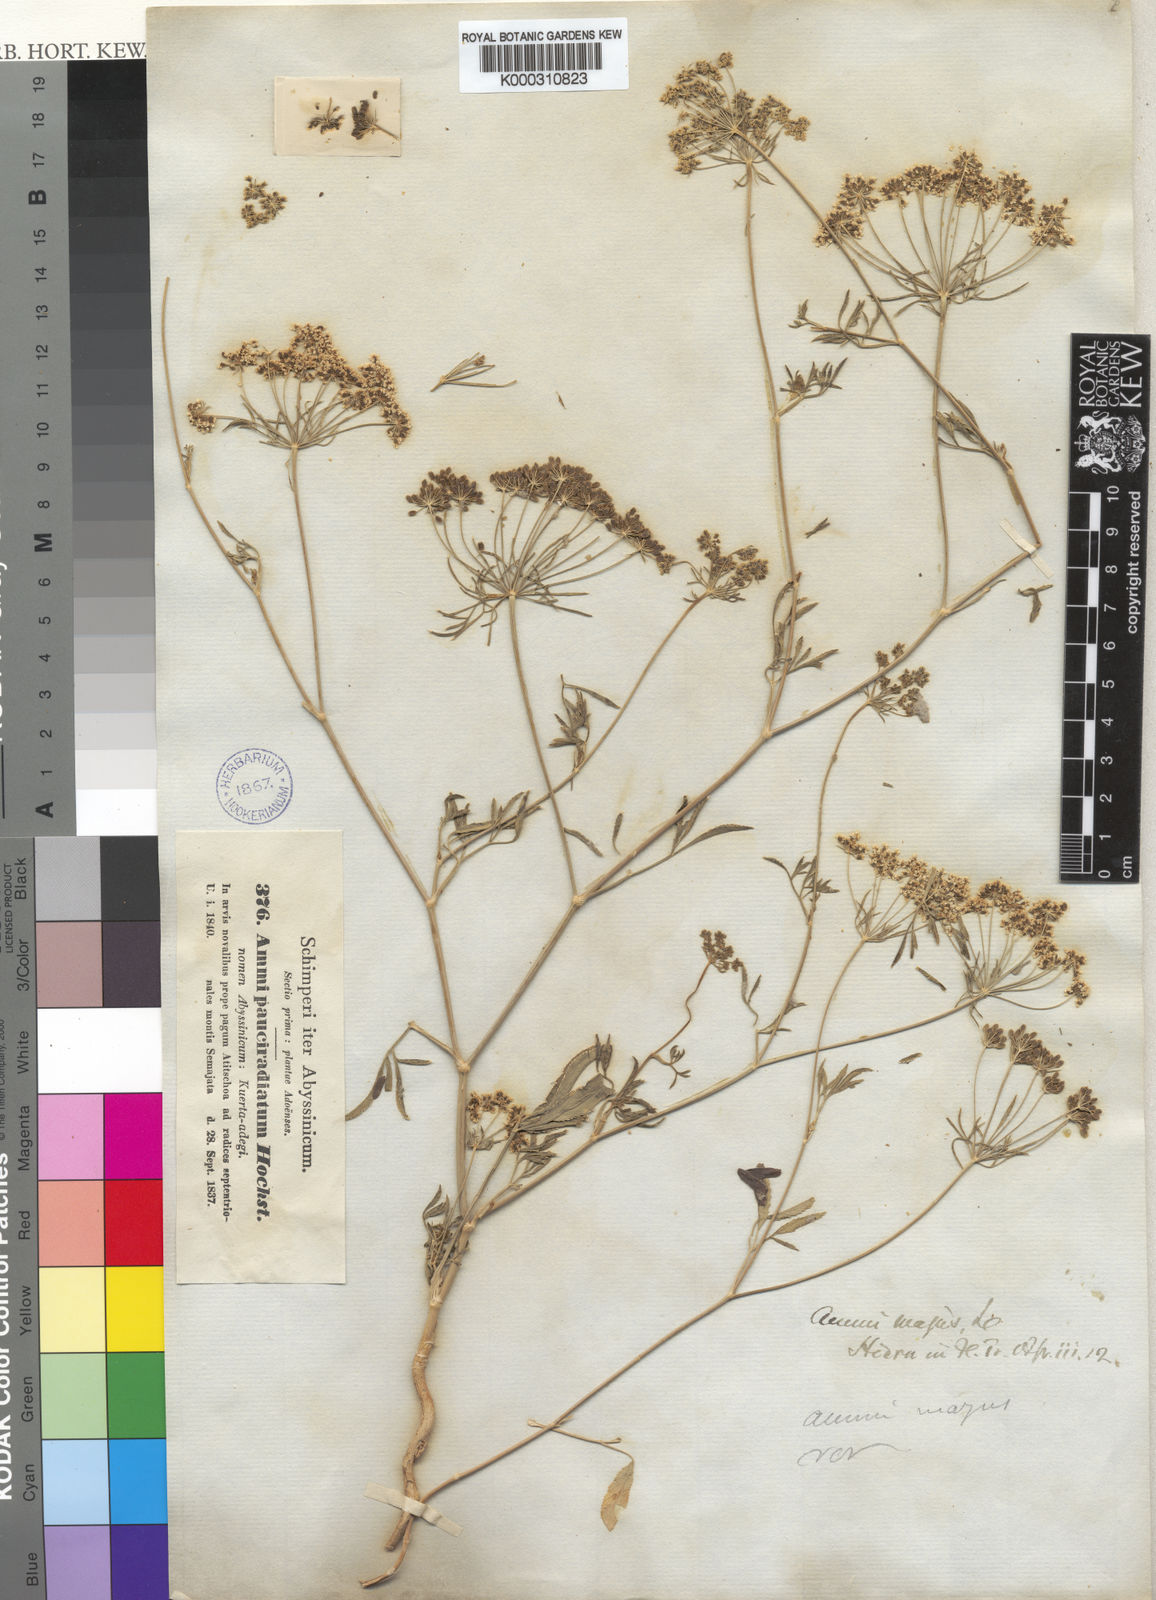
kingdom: Plantae
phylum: Tracheophyta
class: Magnoliopsida
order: Apiales
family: Apiaceae
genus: Ammi
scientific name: Ammi majus
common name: Bullwort
